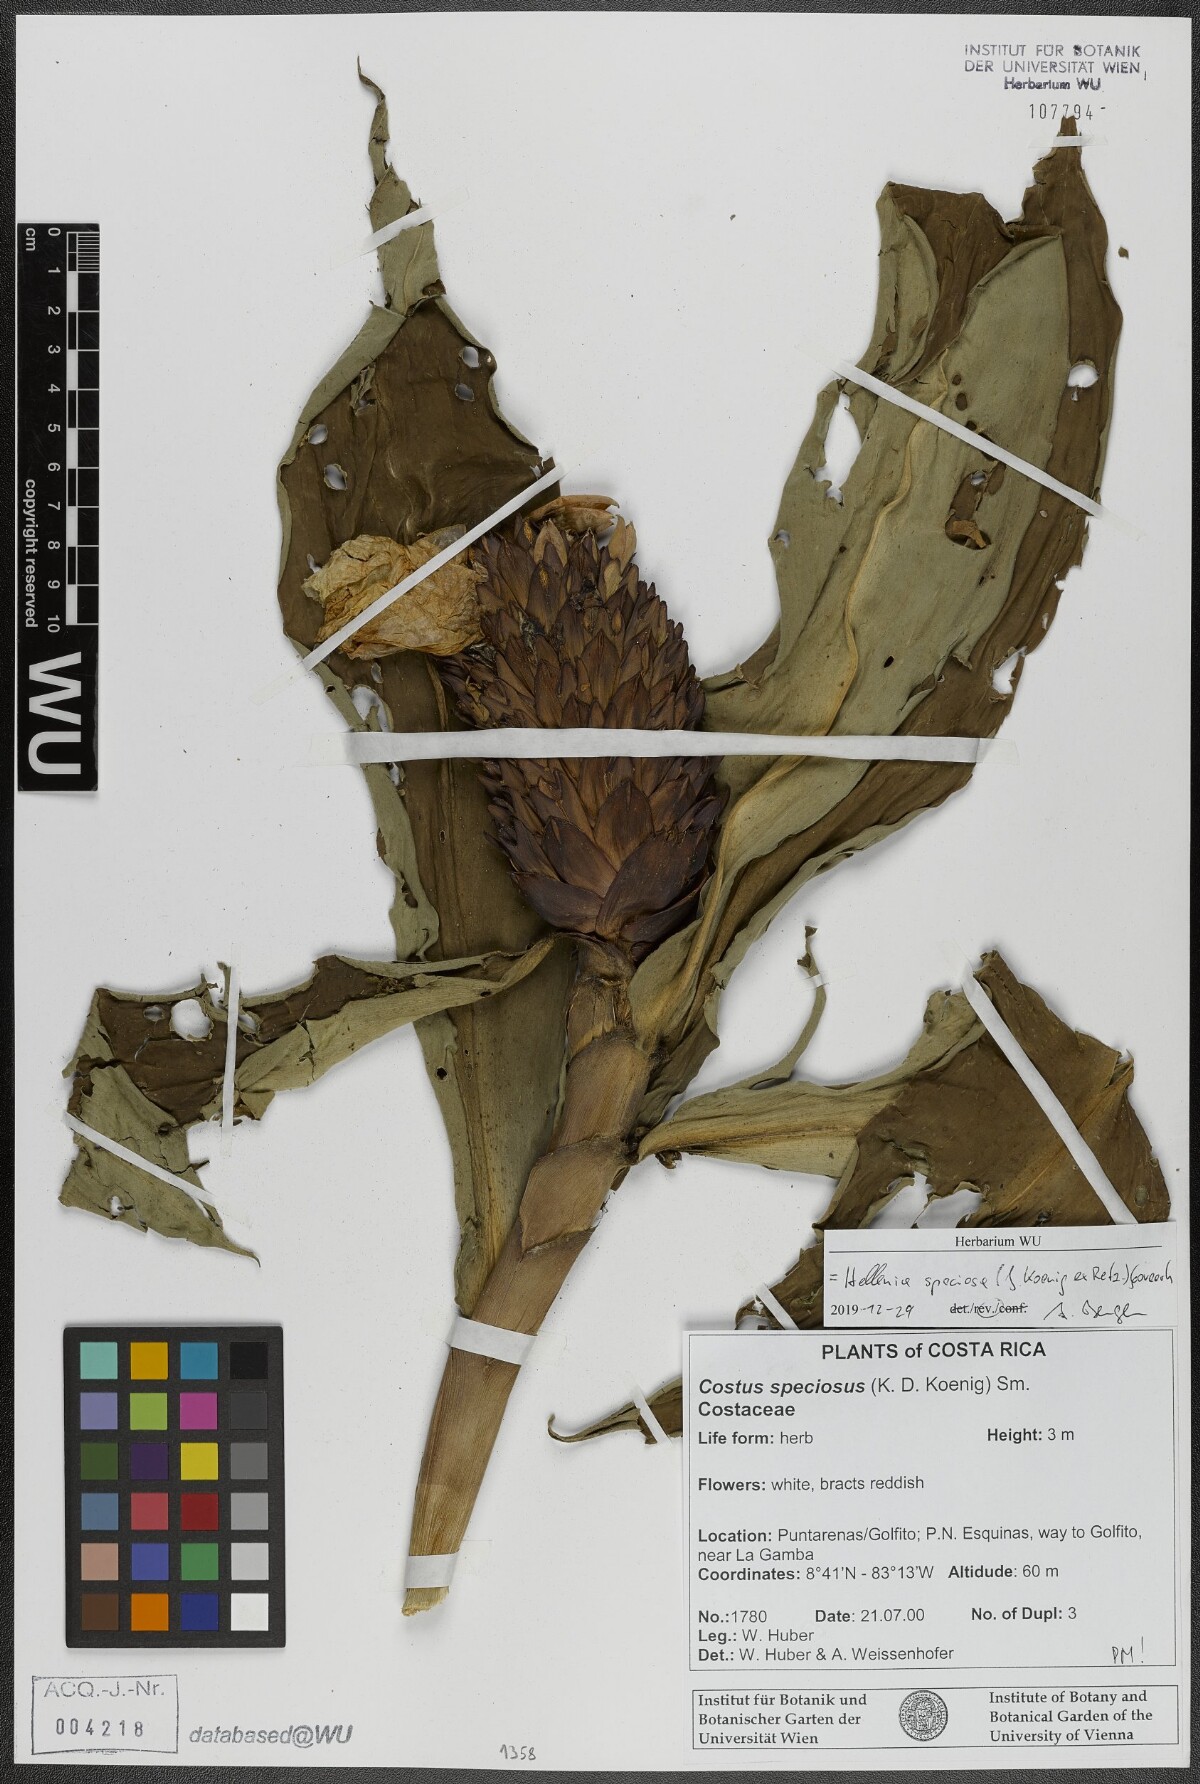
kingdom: Plantae
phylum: Tracheophyta
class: Liliopsida
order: Zingiberales
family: Costaceae
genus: Hellenia
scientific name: Hellenia speciosa
